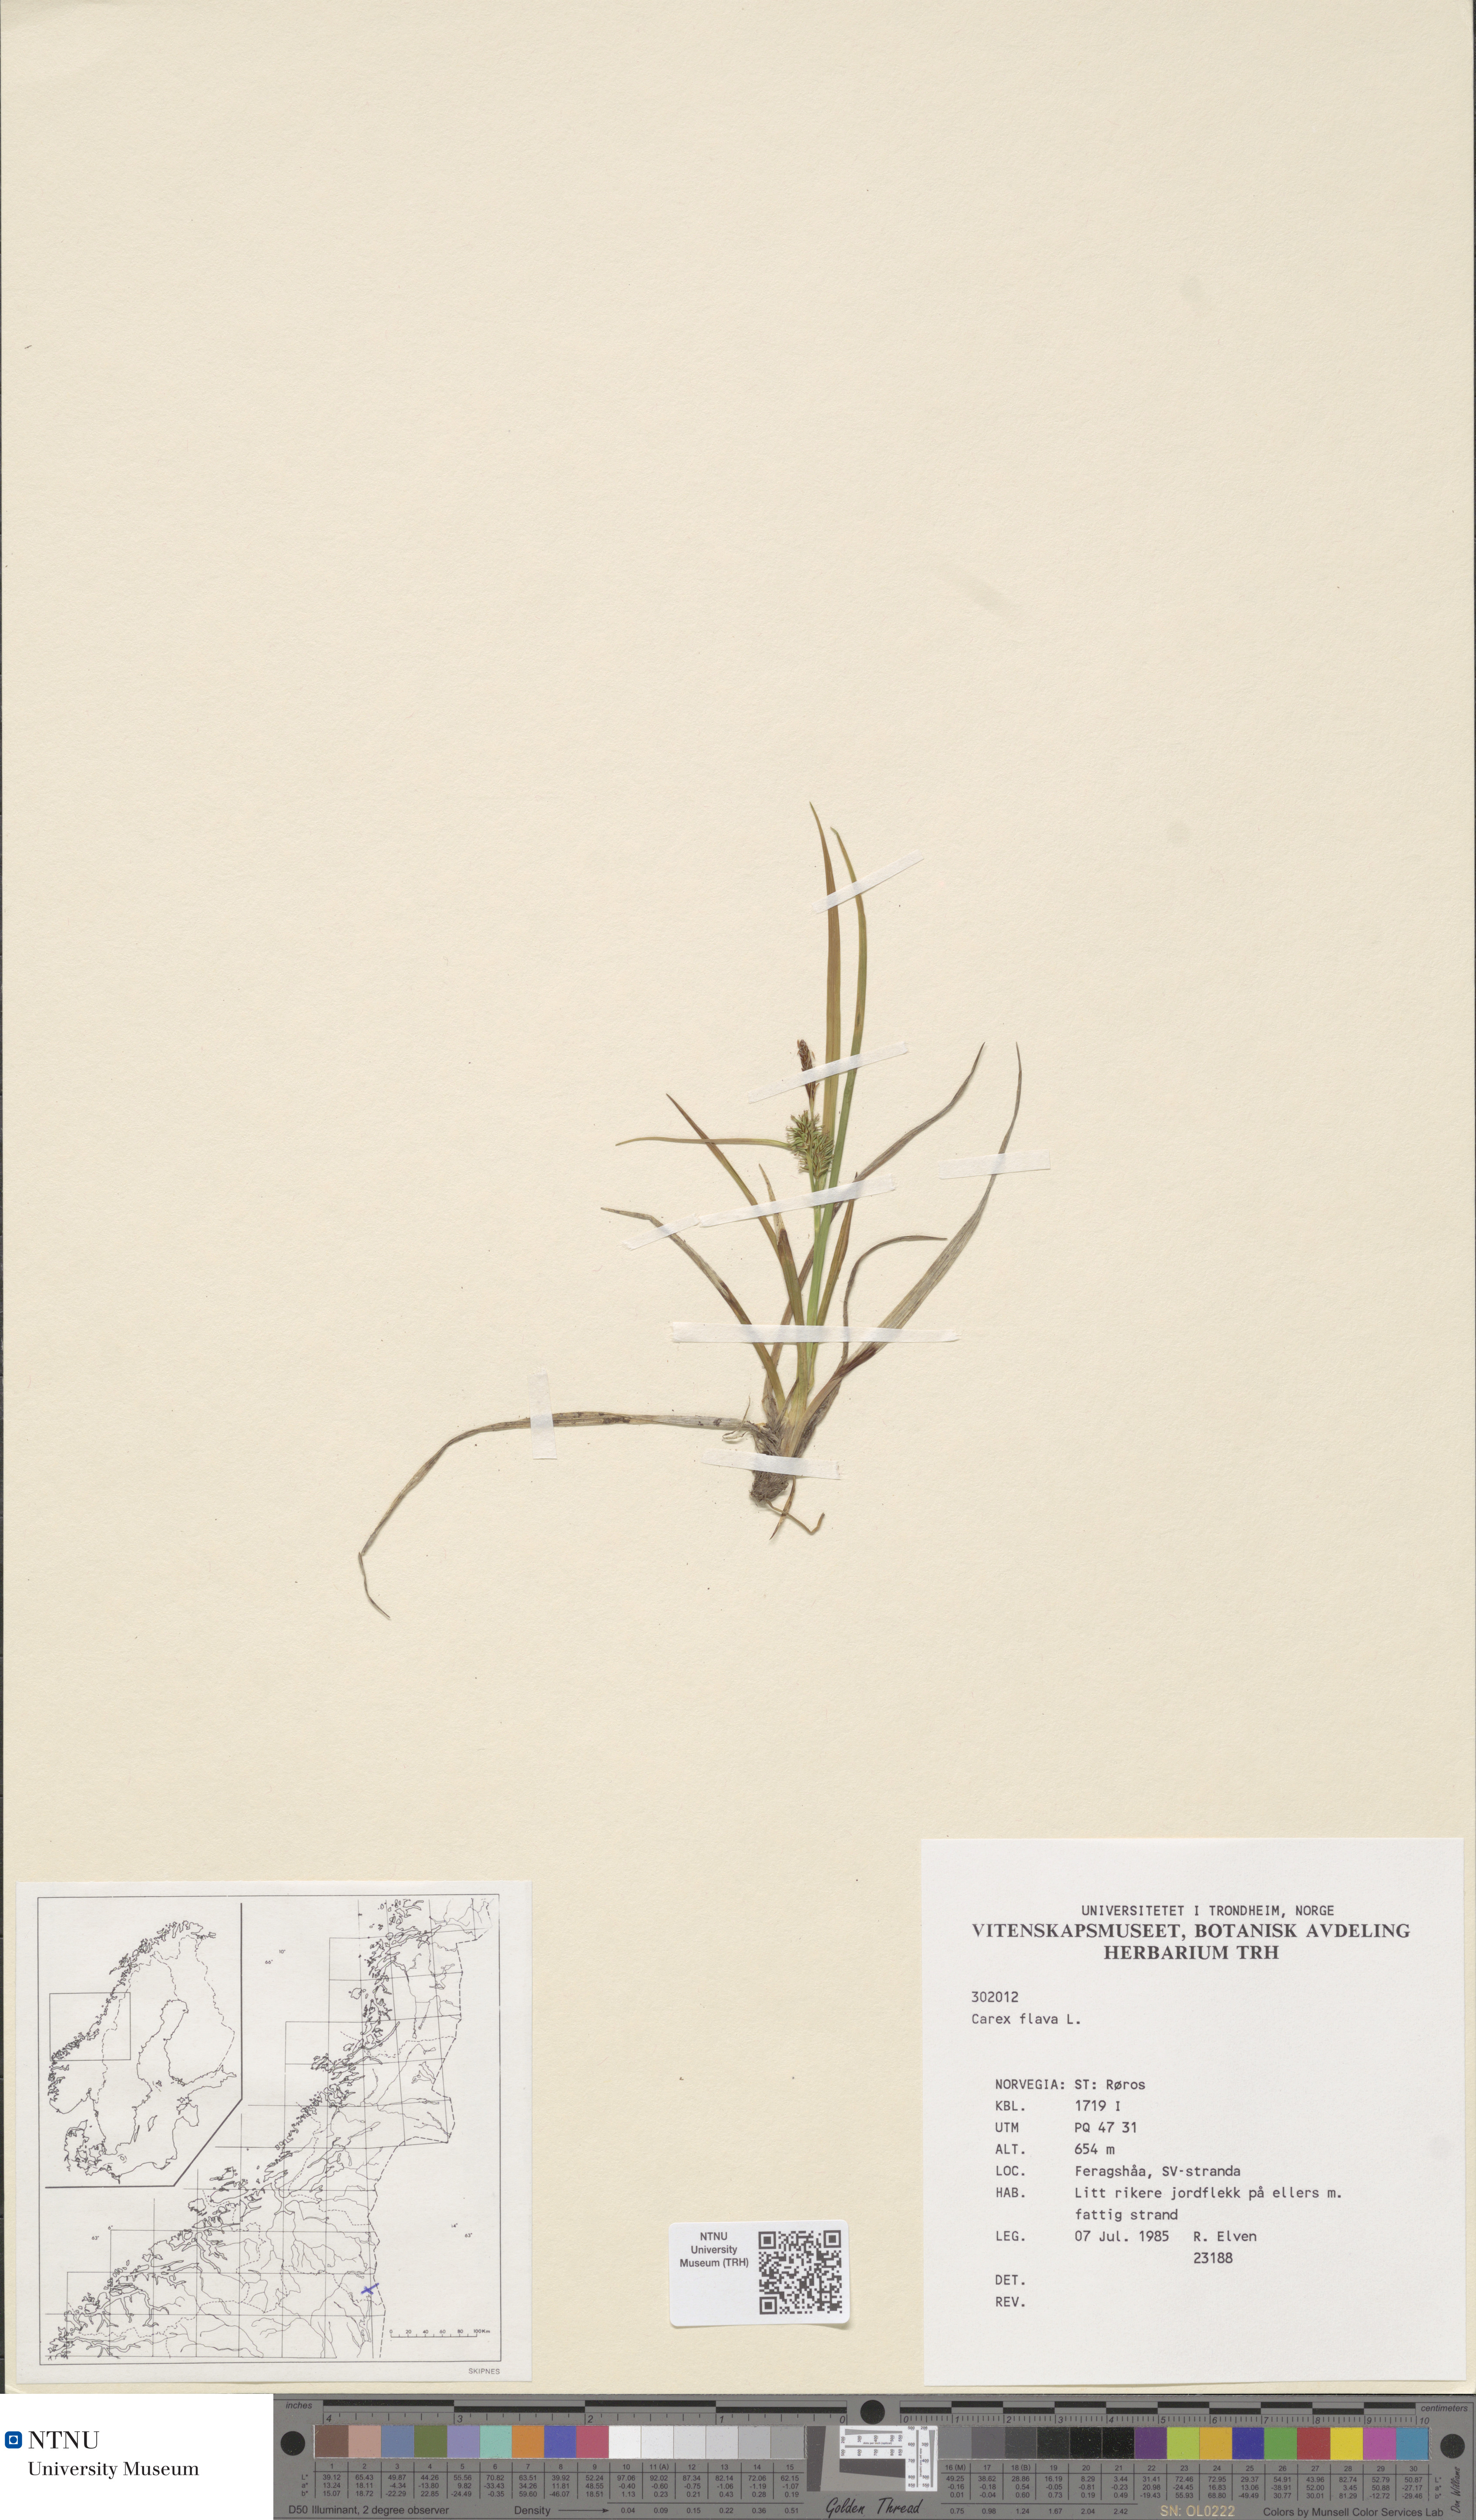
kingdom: Plantae
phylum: Tracheophyta
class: Liliopsida
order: Poales
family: Cyperaceae
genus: Carex
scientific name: Carex flava
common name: Large yellow-sedge
